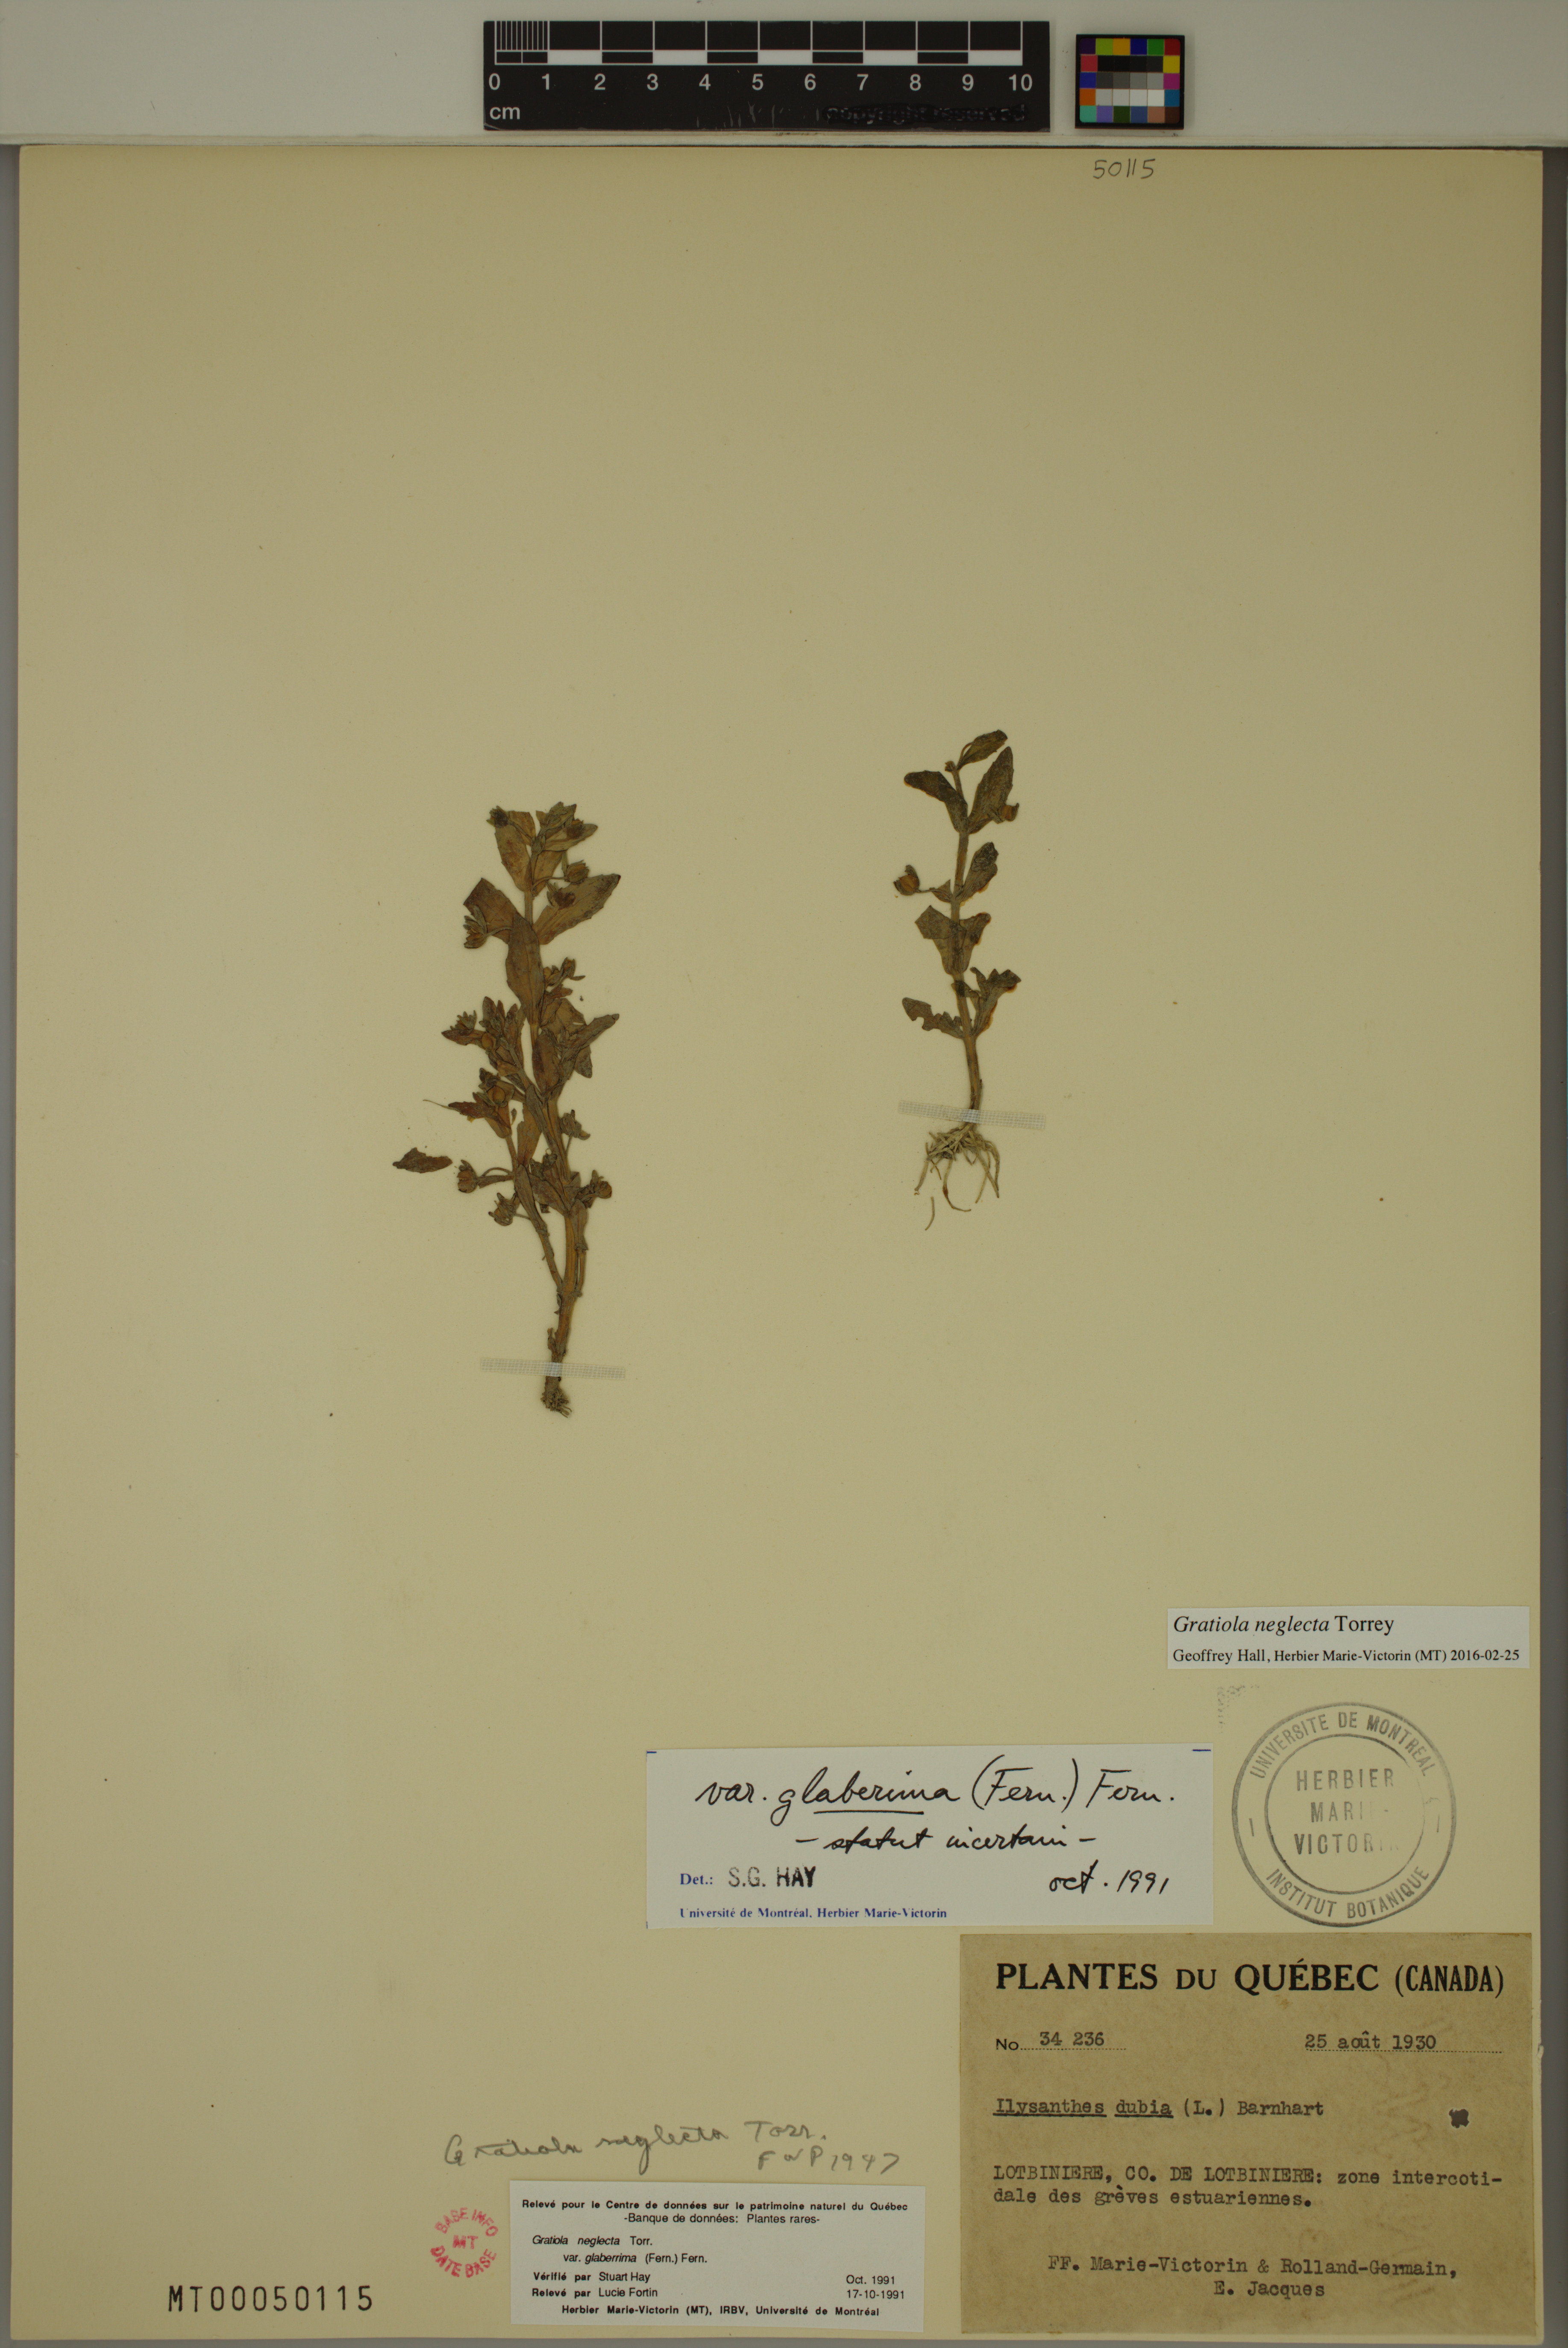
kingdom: Plantae
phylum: Tracheophyta
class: Magnoliopsida
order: Lamiales
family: Plantaginaceae
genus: Gratiola
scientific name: Gratiola neglecta
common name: American hedge-hyssop
